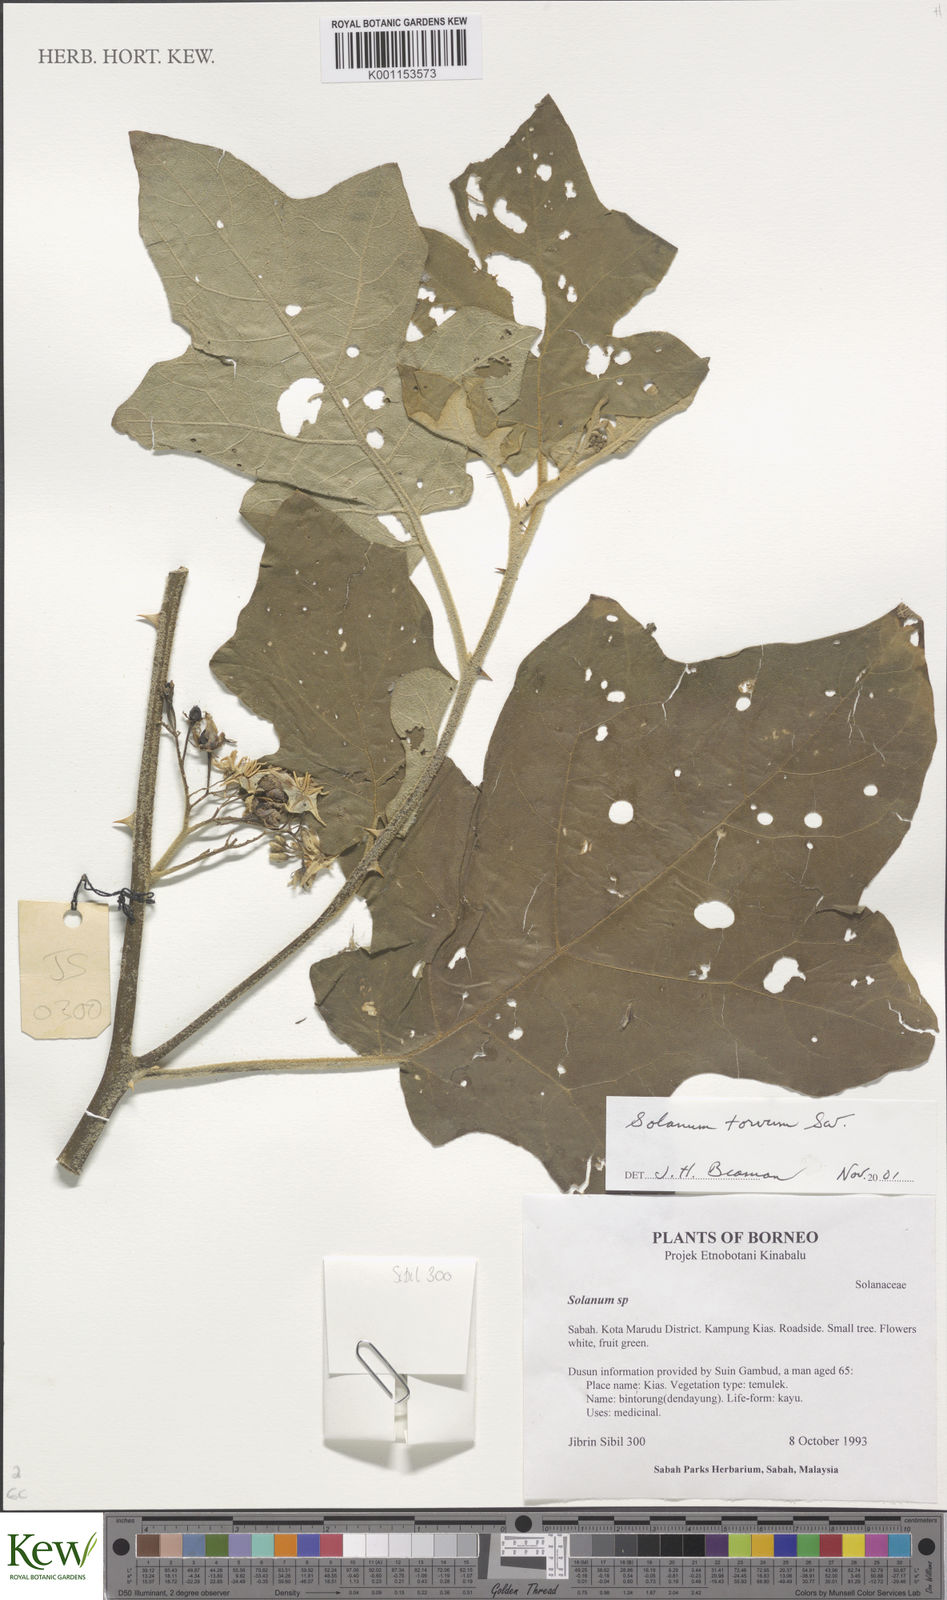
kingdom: Plantae
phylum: Tracheophyta
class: Magnoliopsida
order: Solanales
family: Solanaceae
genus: Solanum
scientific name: Solanum torvum
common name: Turkey berry
